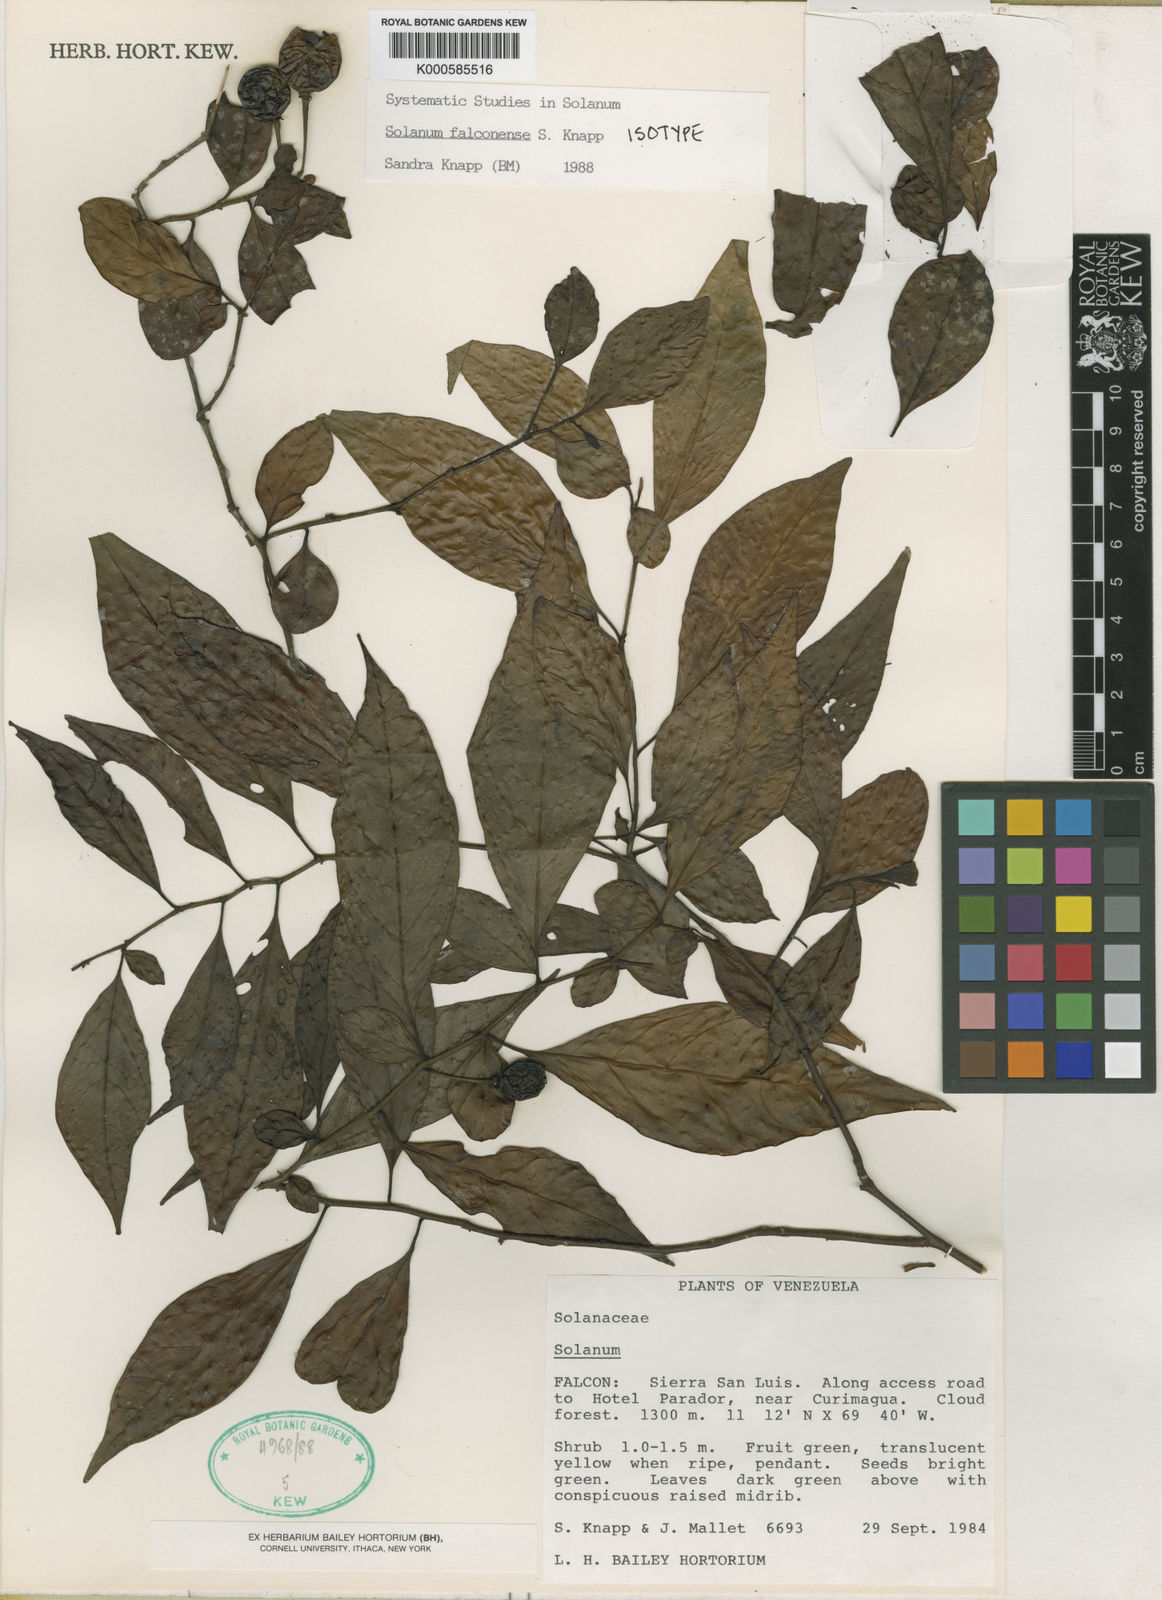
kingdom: Plantae
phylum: Tracheophyta
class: Magnoliopsida
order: Solanales
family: Solanaceae
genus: Solanum
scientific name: Solanum falconense
